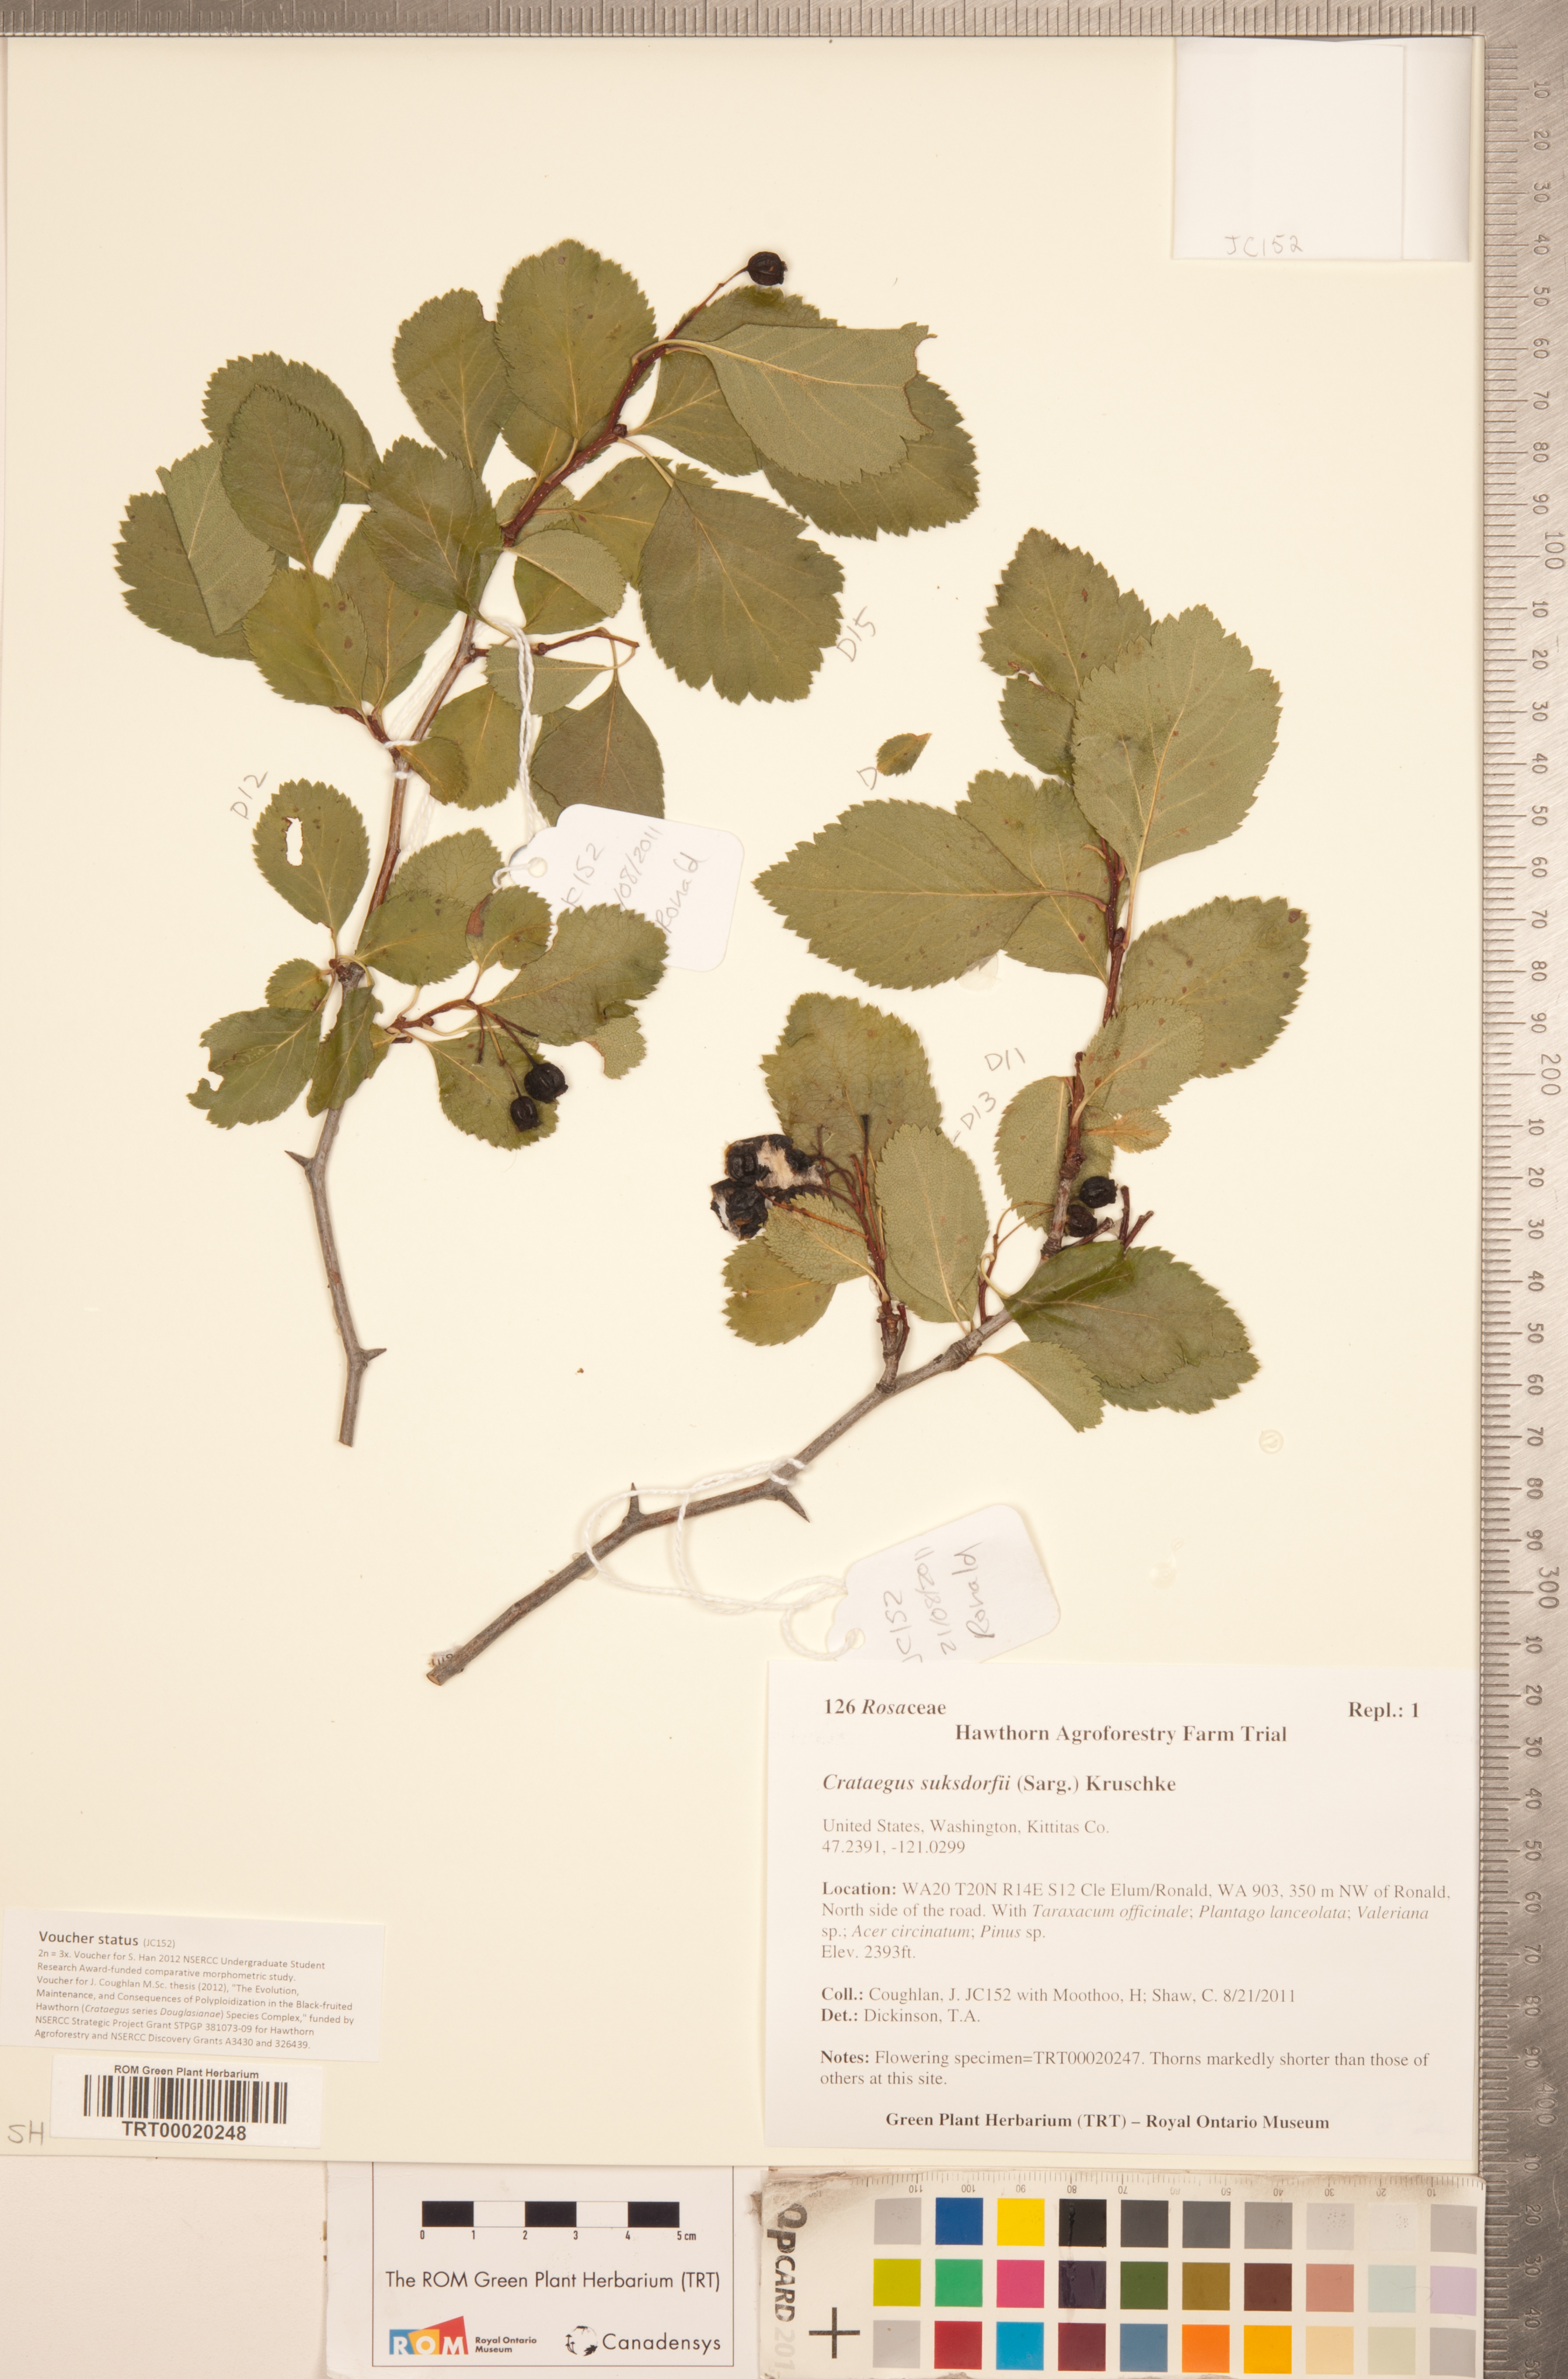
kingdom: Plantae
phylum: Tracheophyta
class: Magnoliopsida
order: Rosales
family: Rosaceae
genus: Crataegus
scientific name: Crataegus gaylussacia
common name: Huckleberry hawthorn
